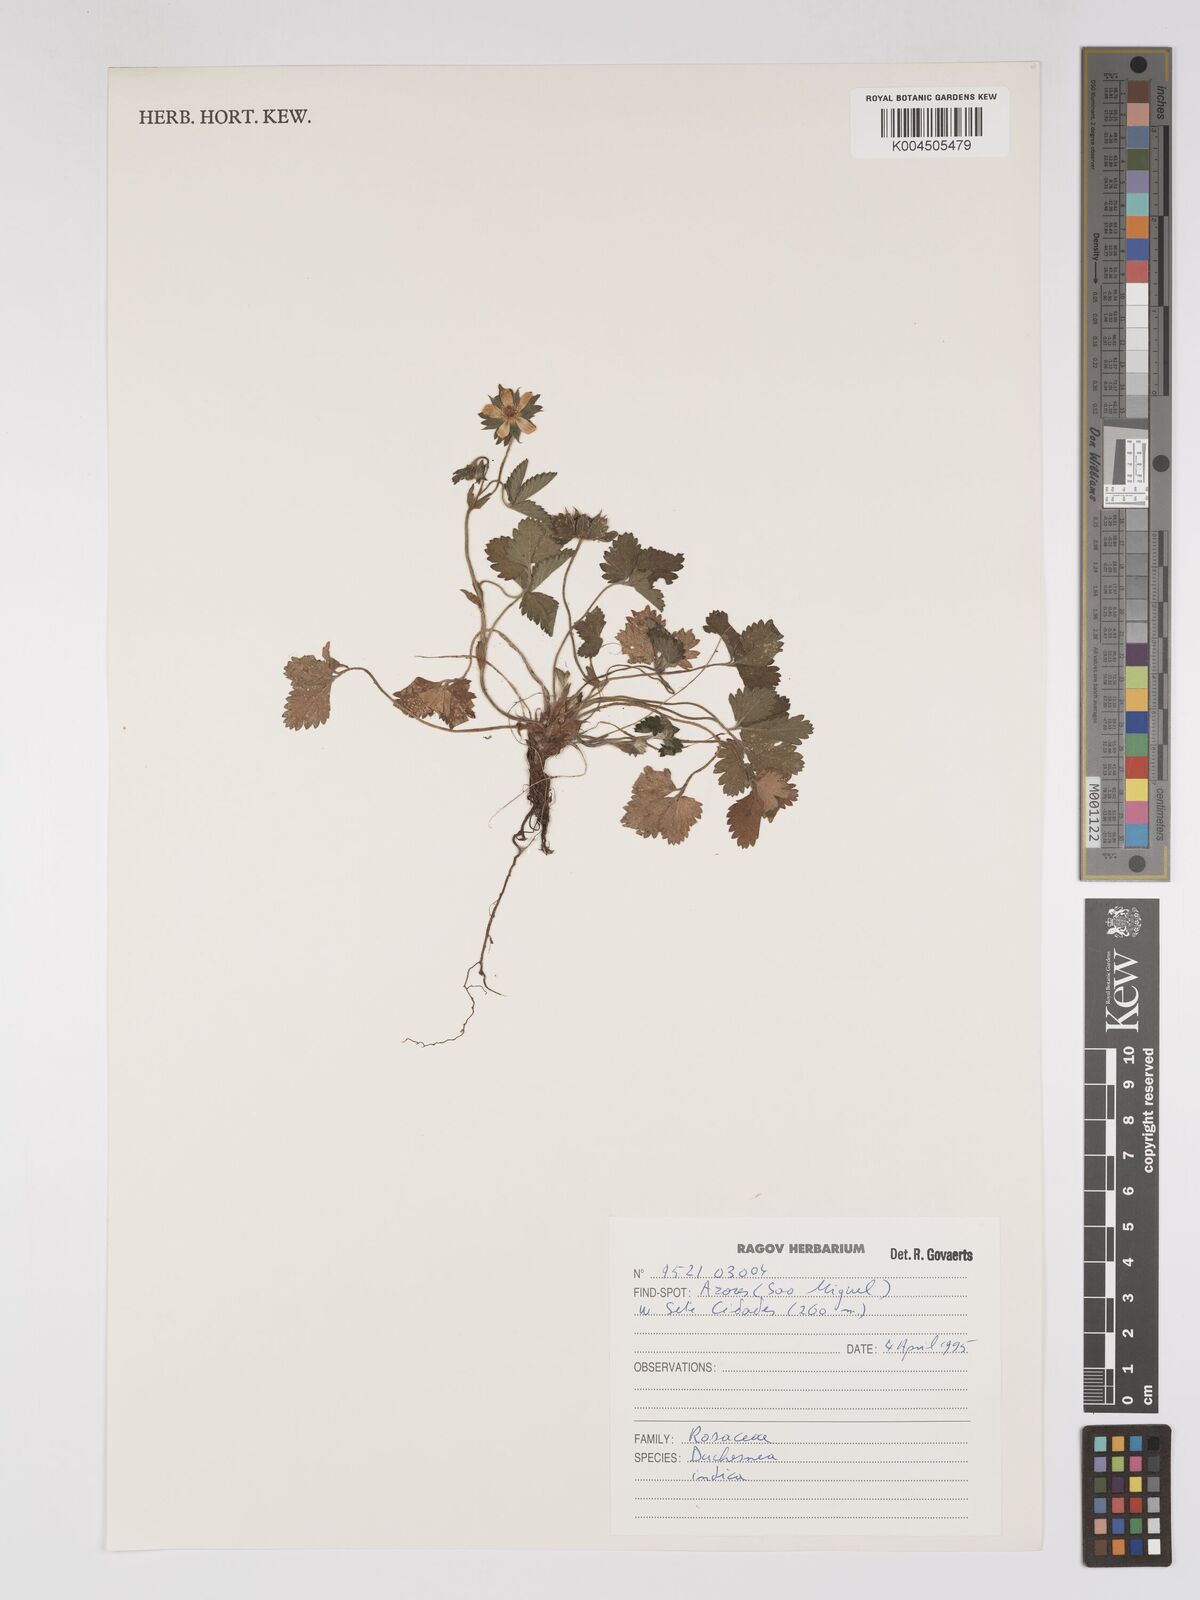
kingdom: Plantae
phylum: Tracheophyta
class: Magnoliopsida
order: Rosales
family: Rosaceae
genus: Potentilla
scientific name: Potentilla indica
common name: Yellow-flowered strawberry
